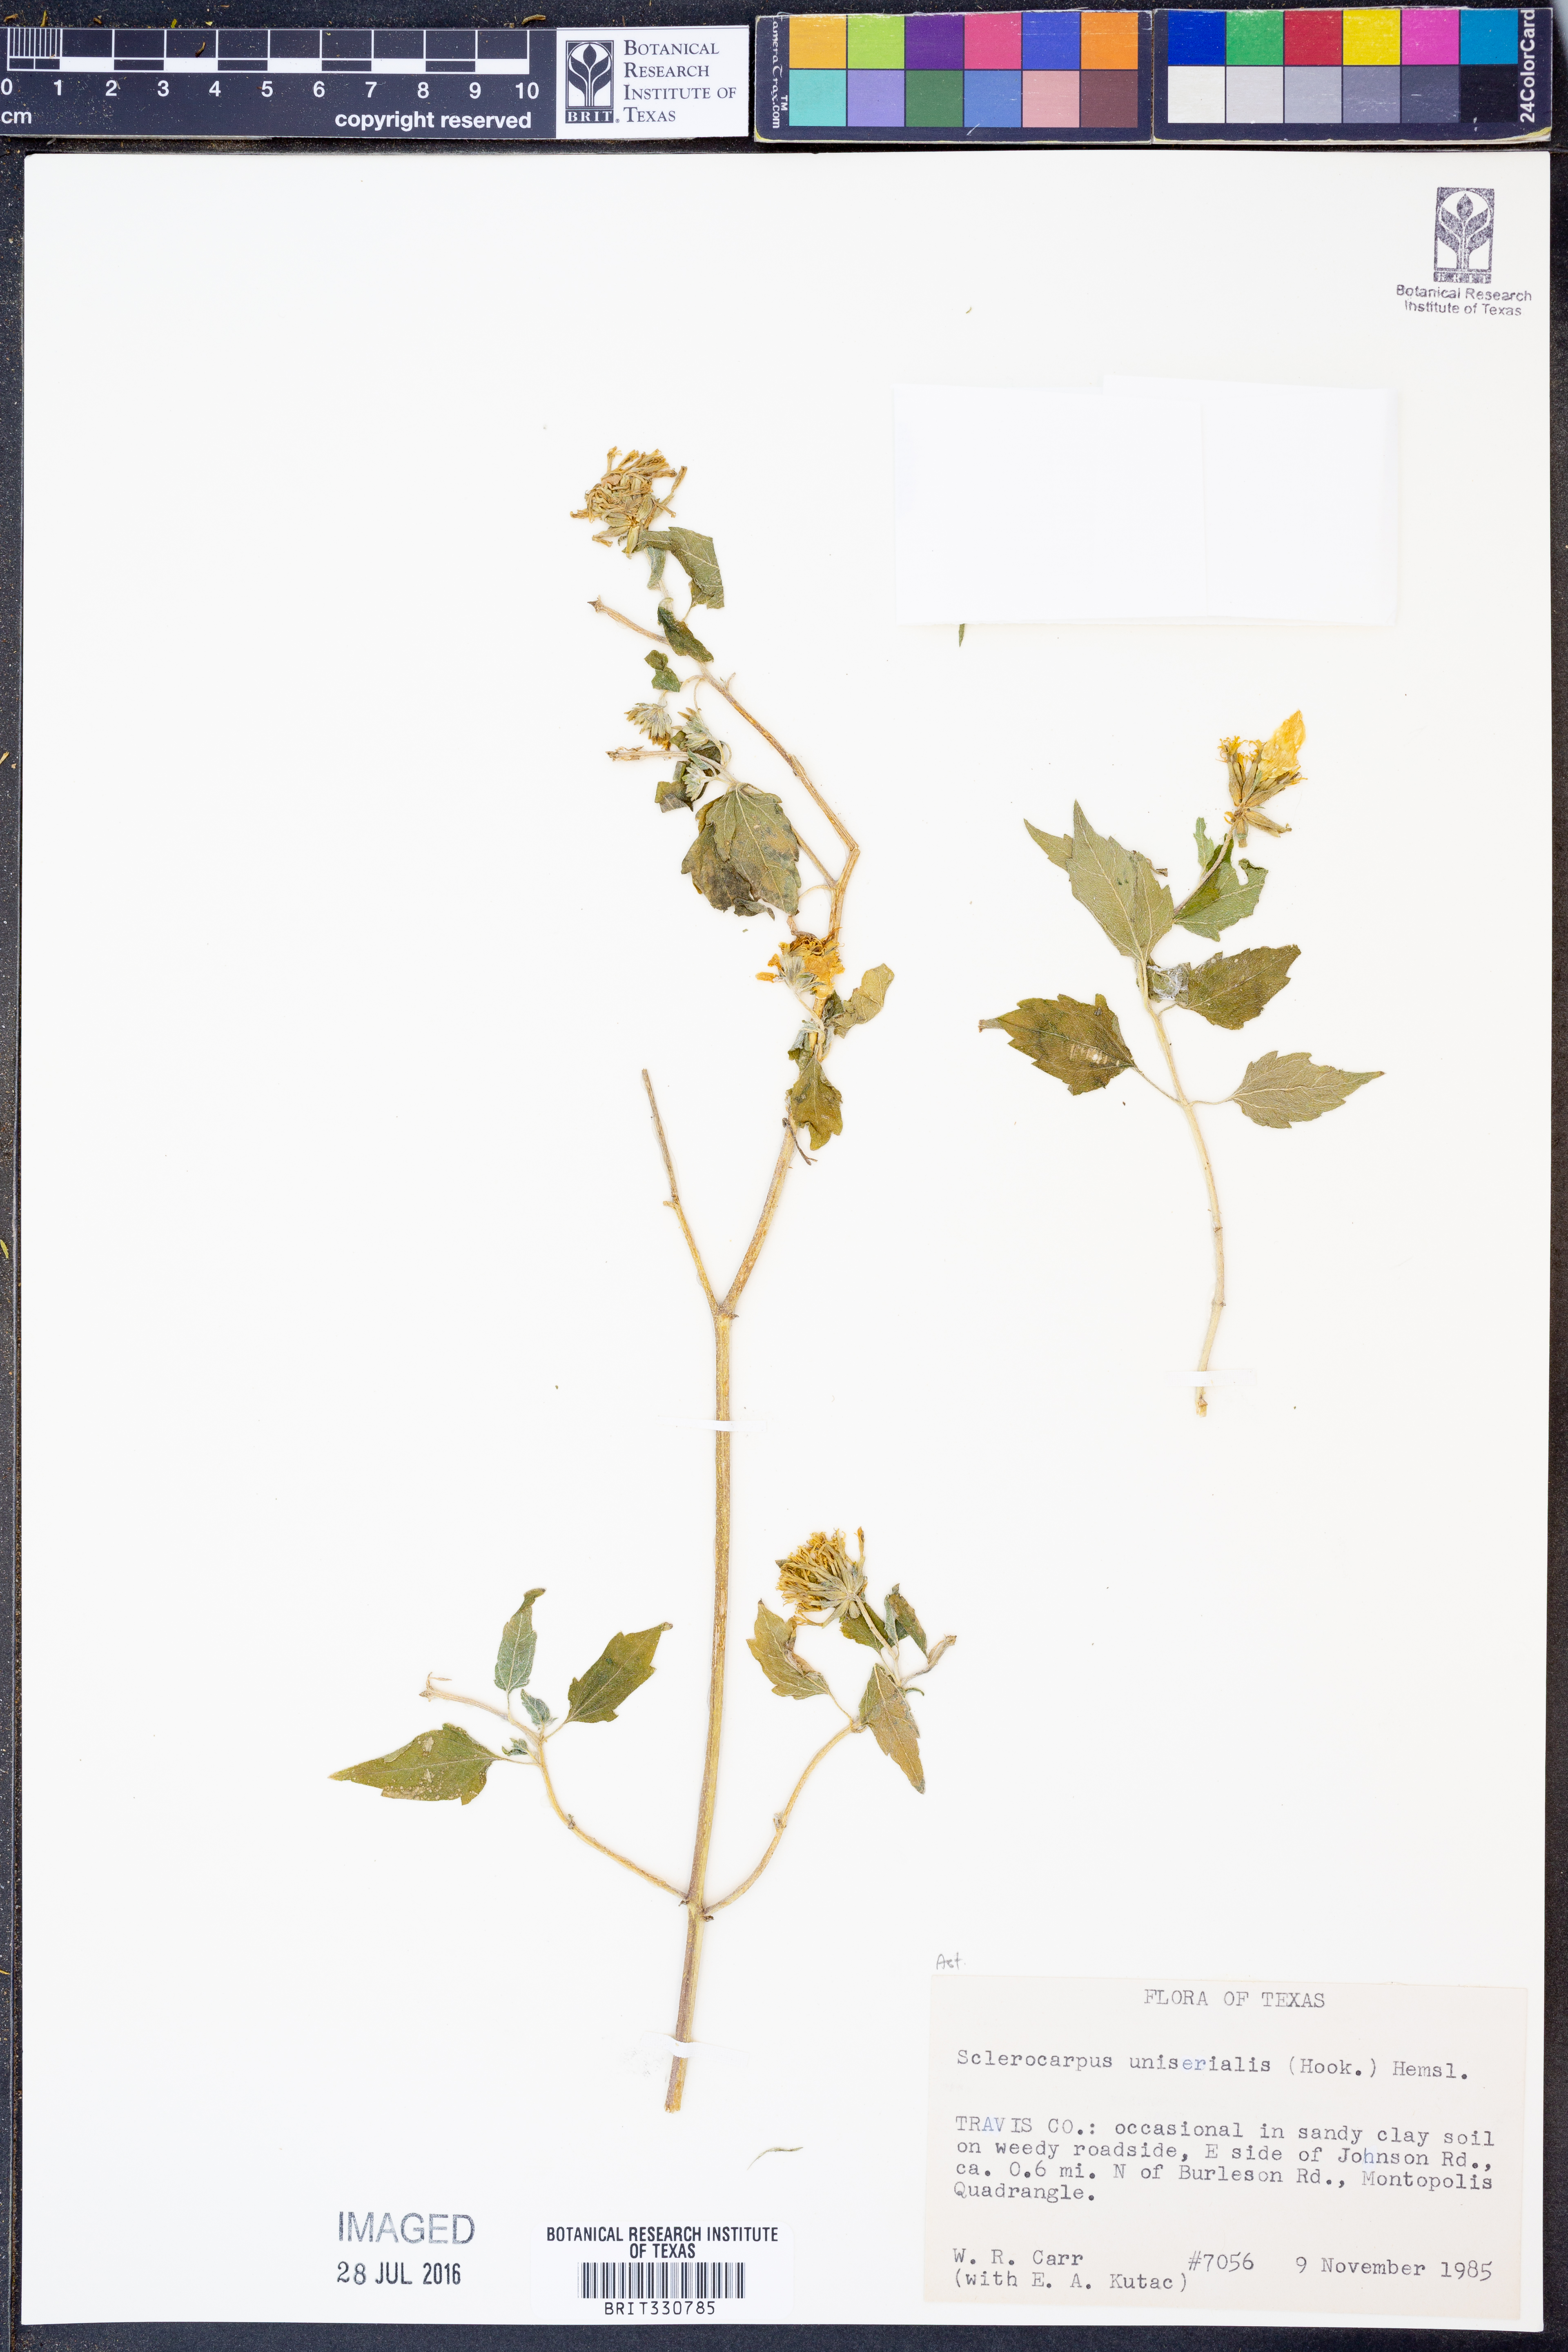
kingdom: Plantae
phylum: Tracheophyta
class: Magnoliopsida
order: Asterales
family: Asteraceae
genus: Sclerocarpus
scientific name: Sclerocarpus uniserialis
